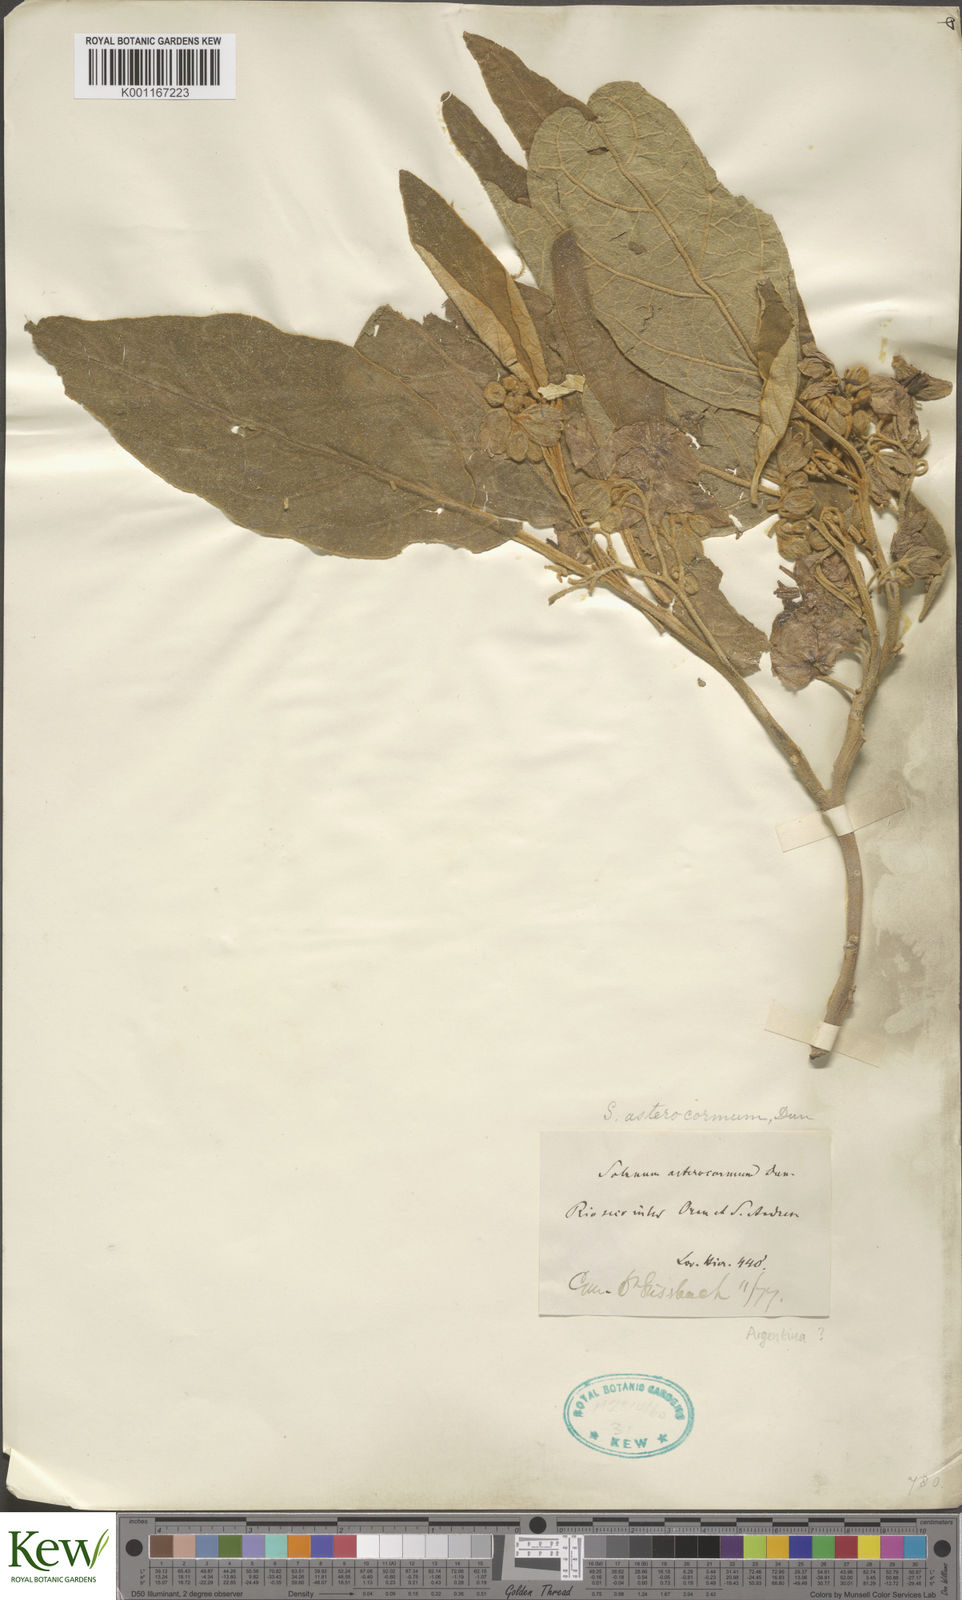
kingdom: Plantae
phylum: Tracheophyta
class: Magnoliopsida
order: Solanales
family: Solanaceae
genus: Solanum
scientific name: Solanum variabile
